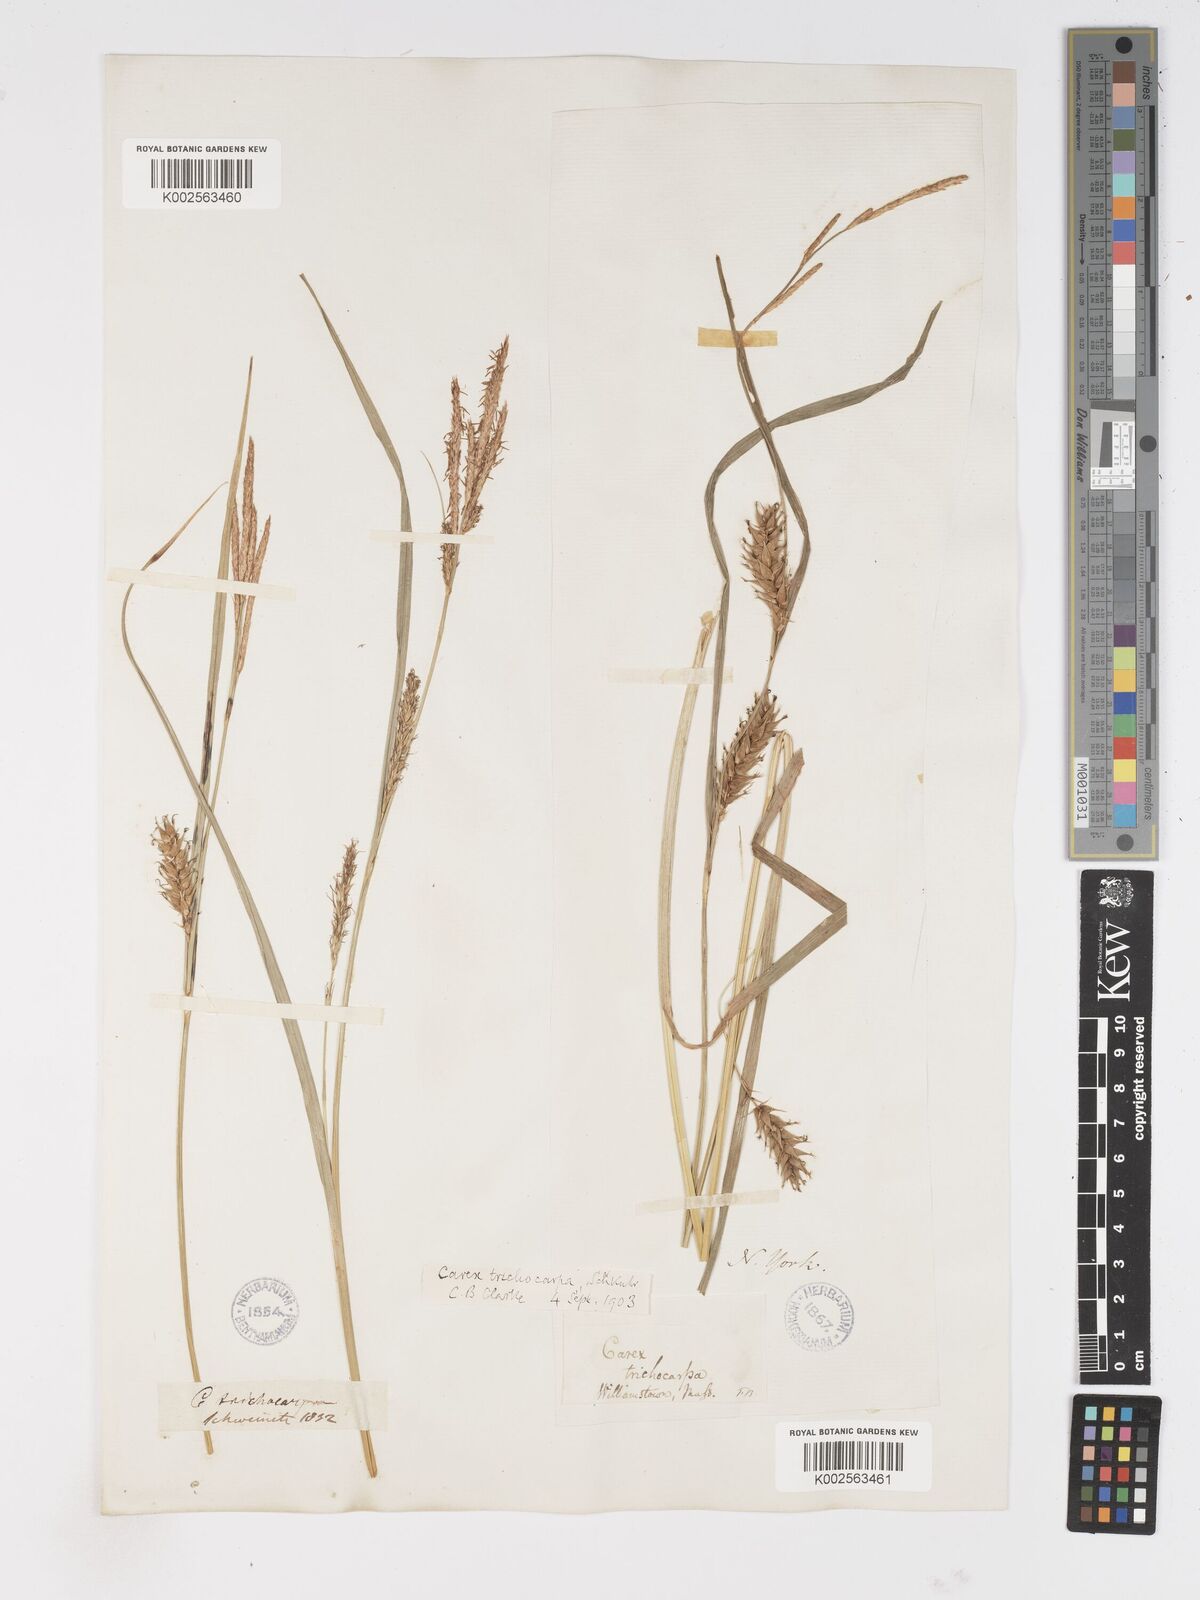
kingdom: Plantae
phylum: Tracheophyta
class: Liliopsida
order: Poales
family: Cyperaceae
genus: Carex
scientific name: Carex trichocarpa
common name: Hairy-fruited lake sedge
